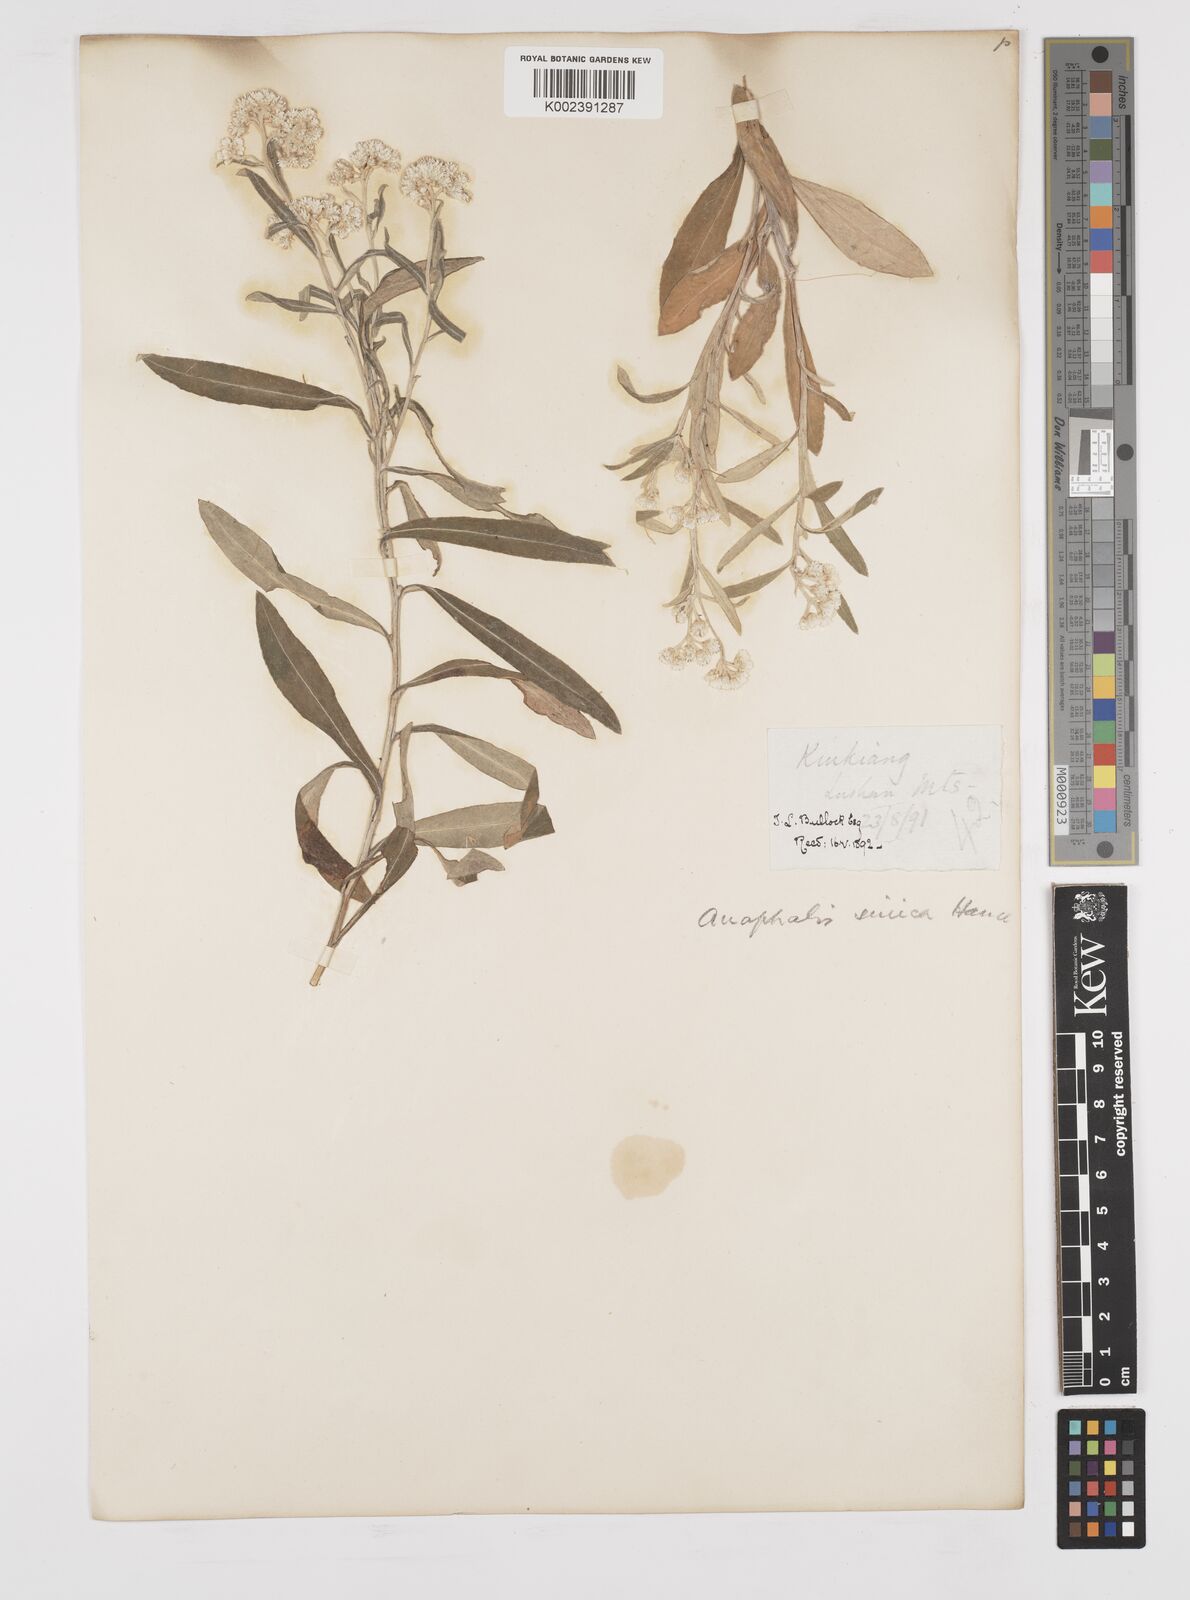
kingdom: Plantae
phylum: Tracheophyta
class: Magnoliopsida
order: Asterales
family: Asteraceae
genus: Anaphalis
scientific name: Anaphalis sinica
